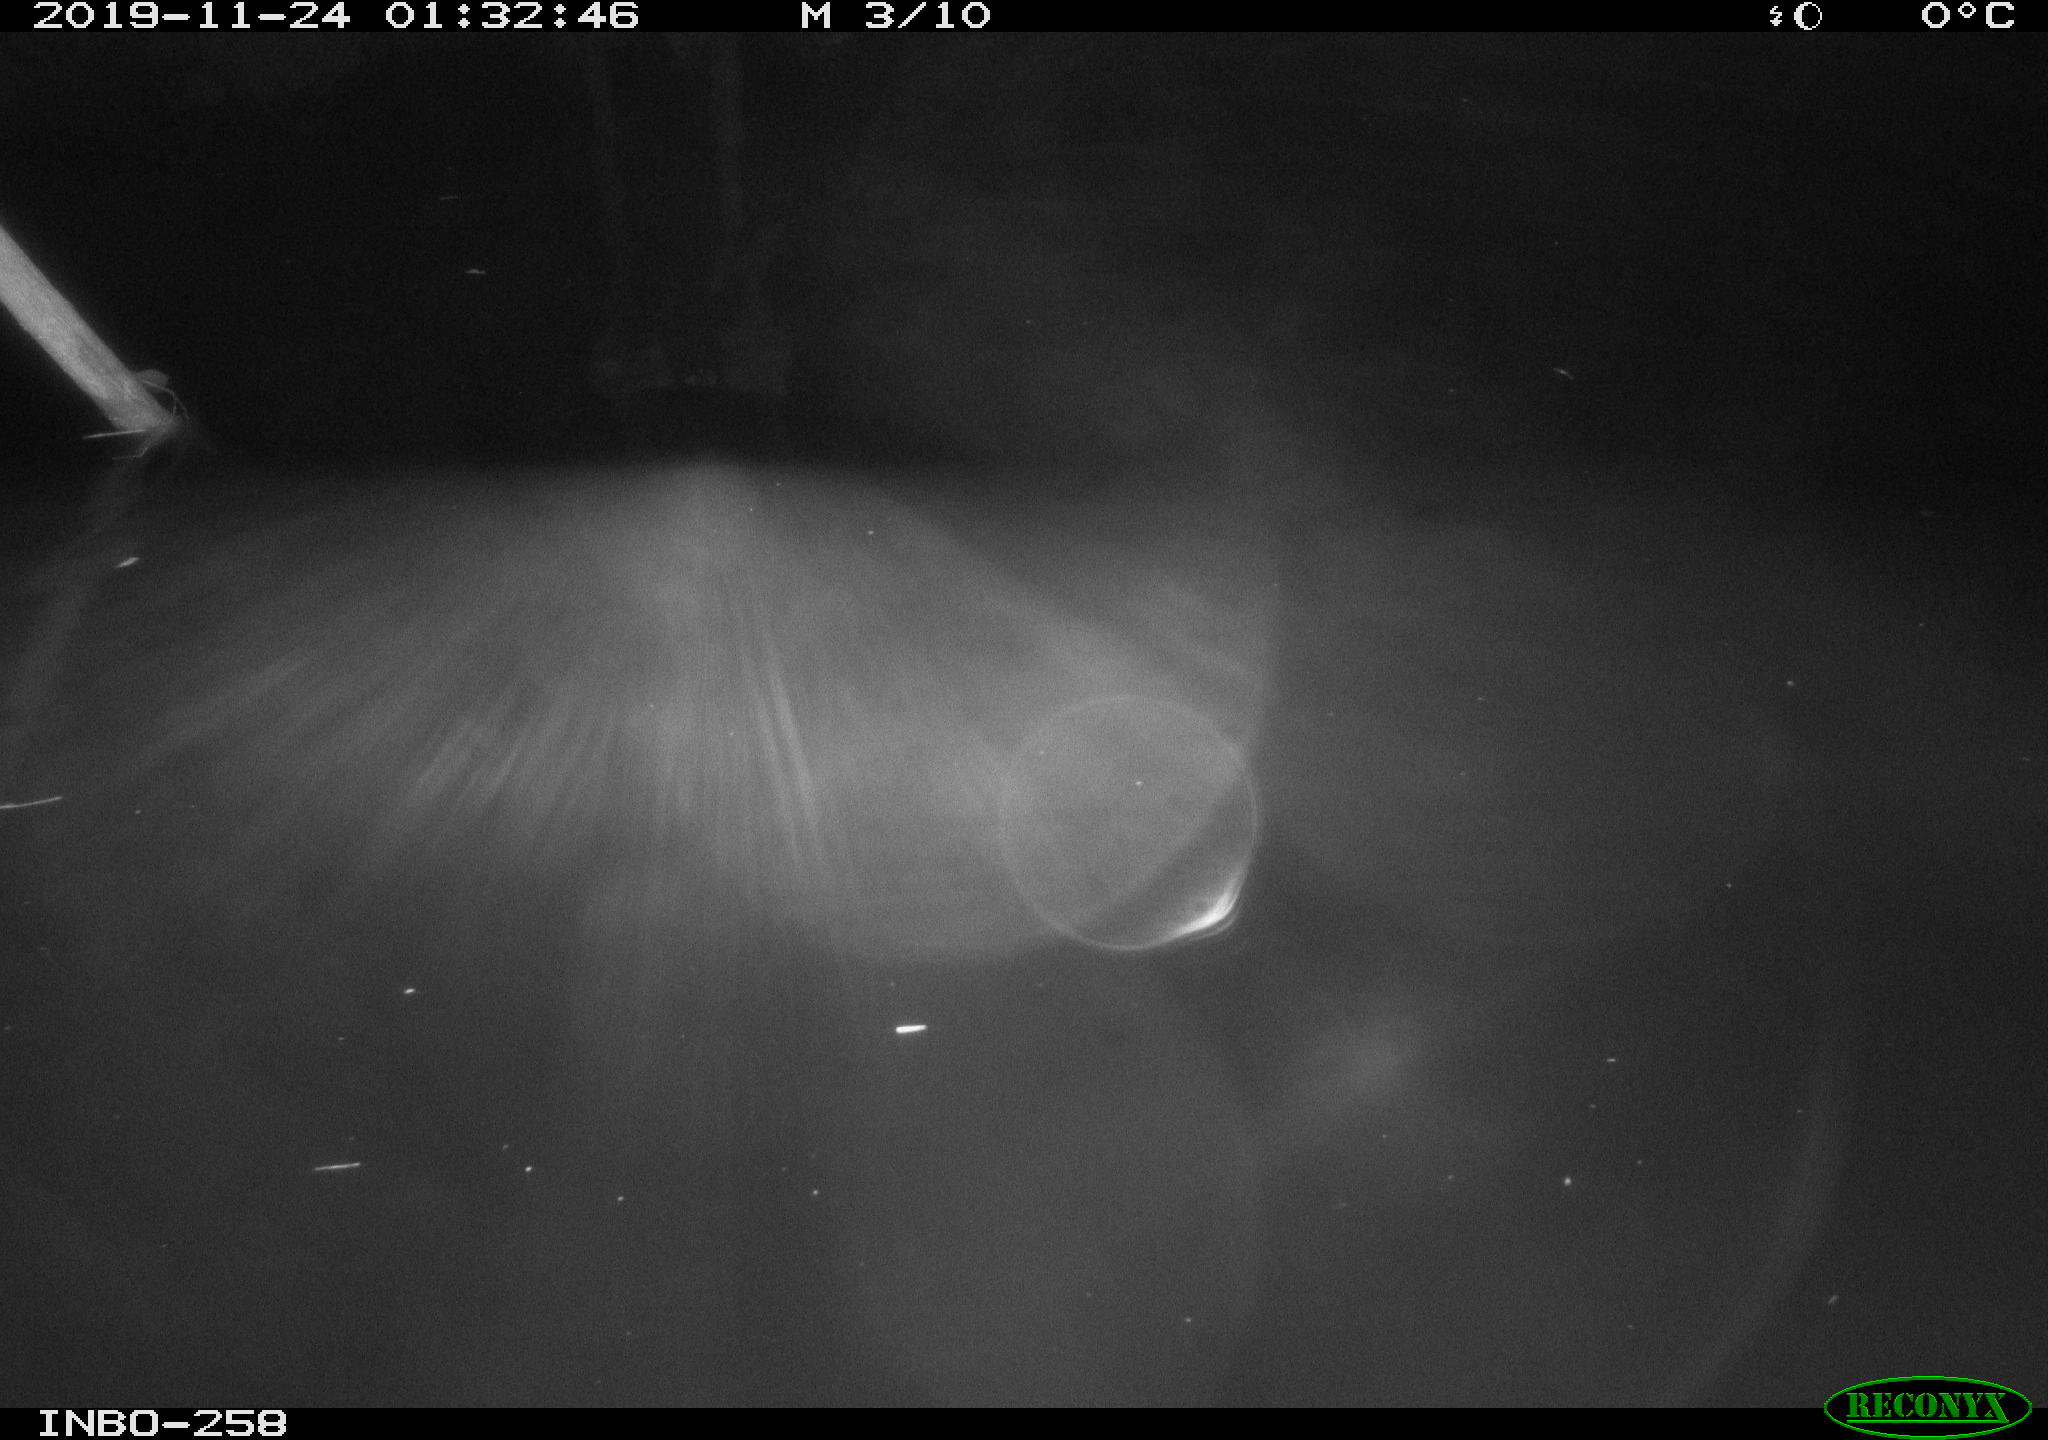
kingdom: Animalia
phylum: Chordata
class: Aves
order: Anseriformes
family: Anatidae
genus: Anas
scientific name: Anas platyrhynchos
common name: Mallard
